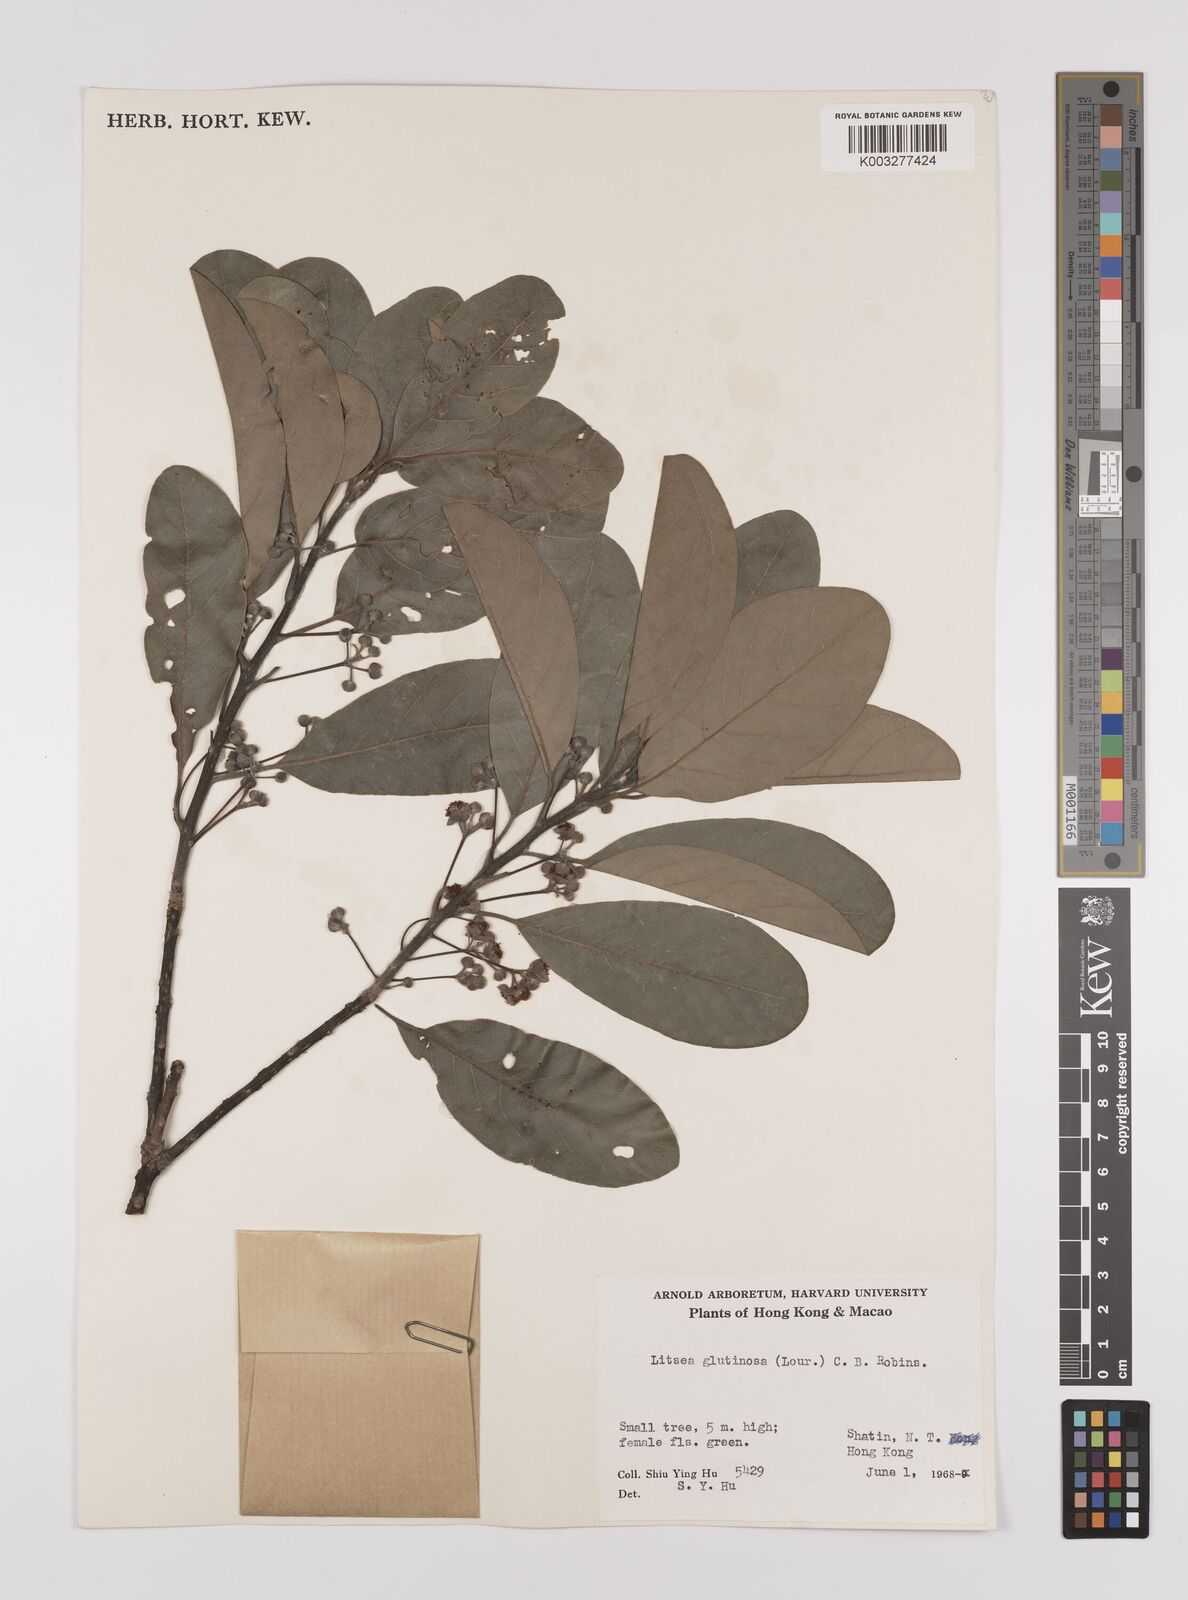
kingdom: Plantae
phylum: Tracheophyta
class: Magnoliopsida
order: Laurales
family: Lauraceae
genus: Litsea
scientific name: Litsea glutinosa
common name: Indian-laurel
